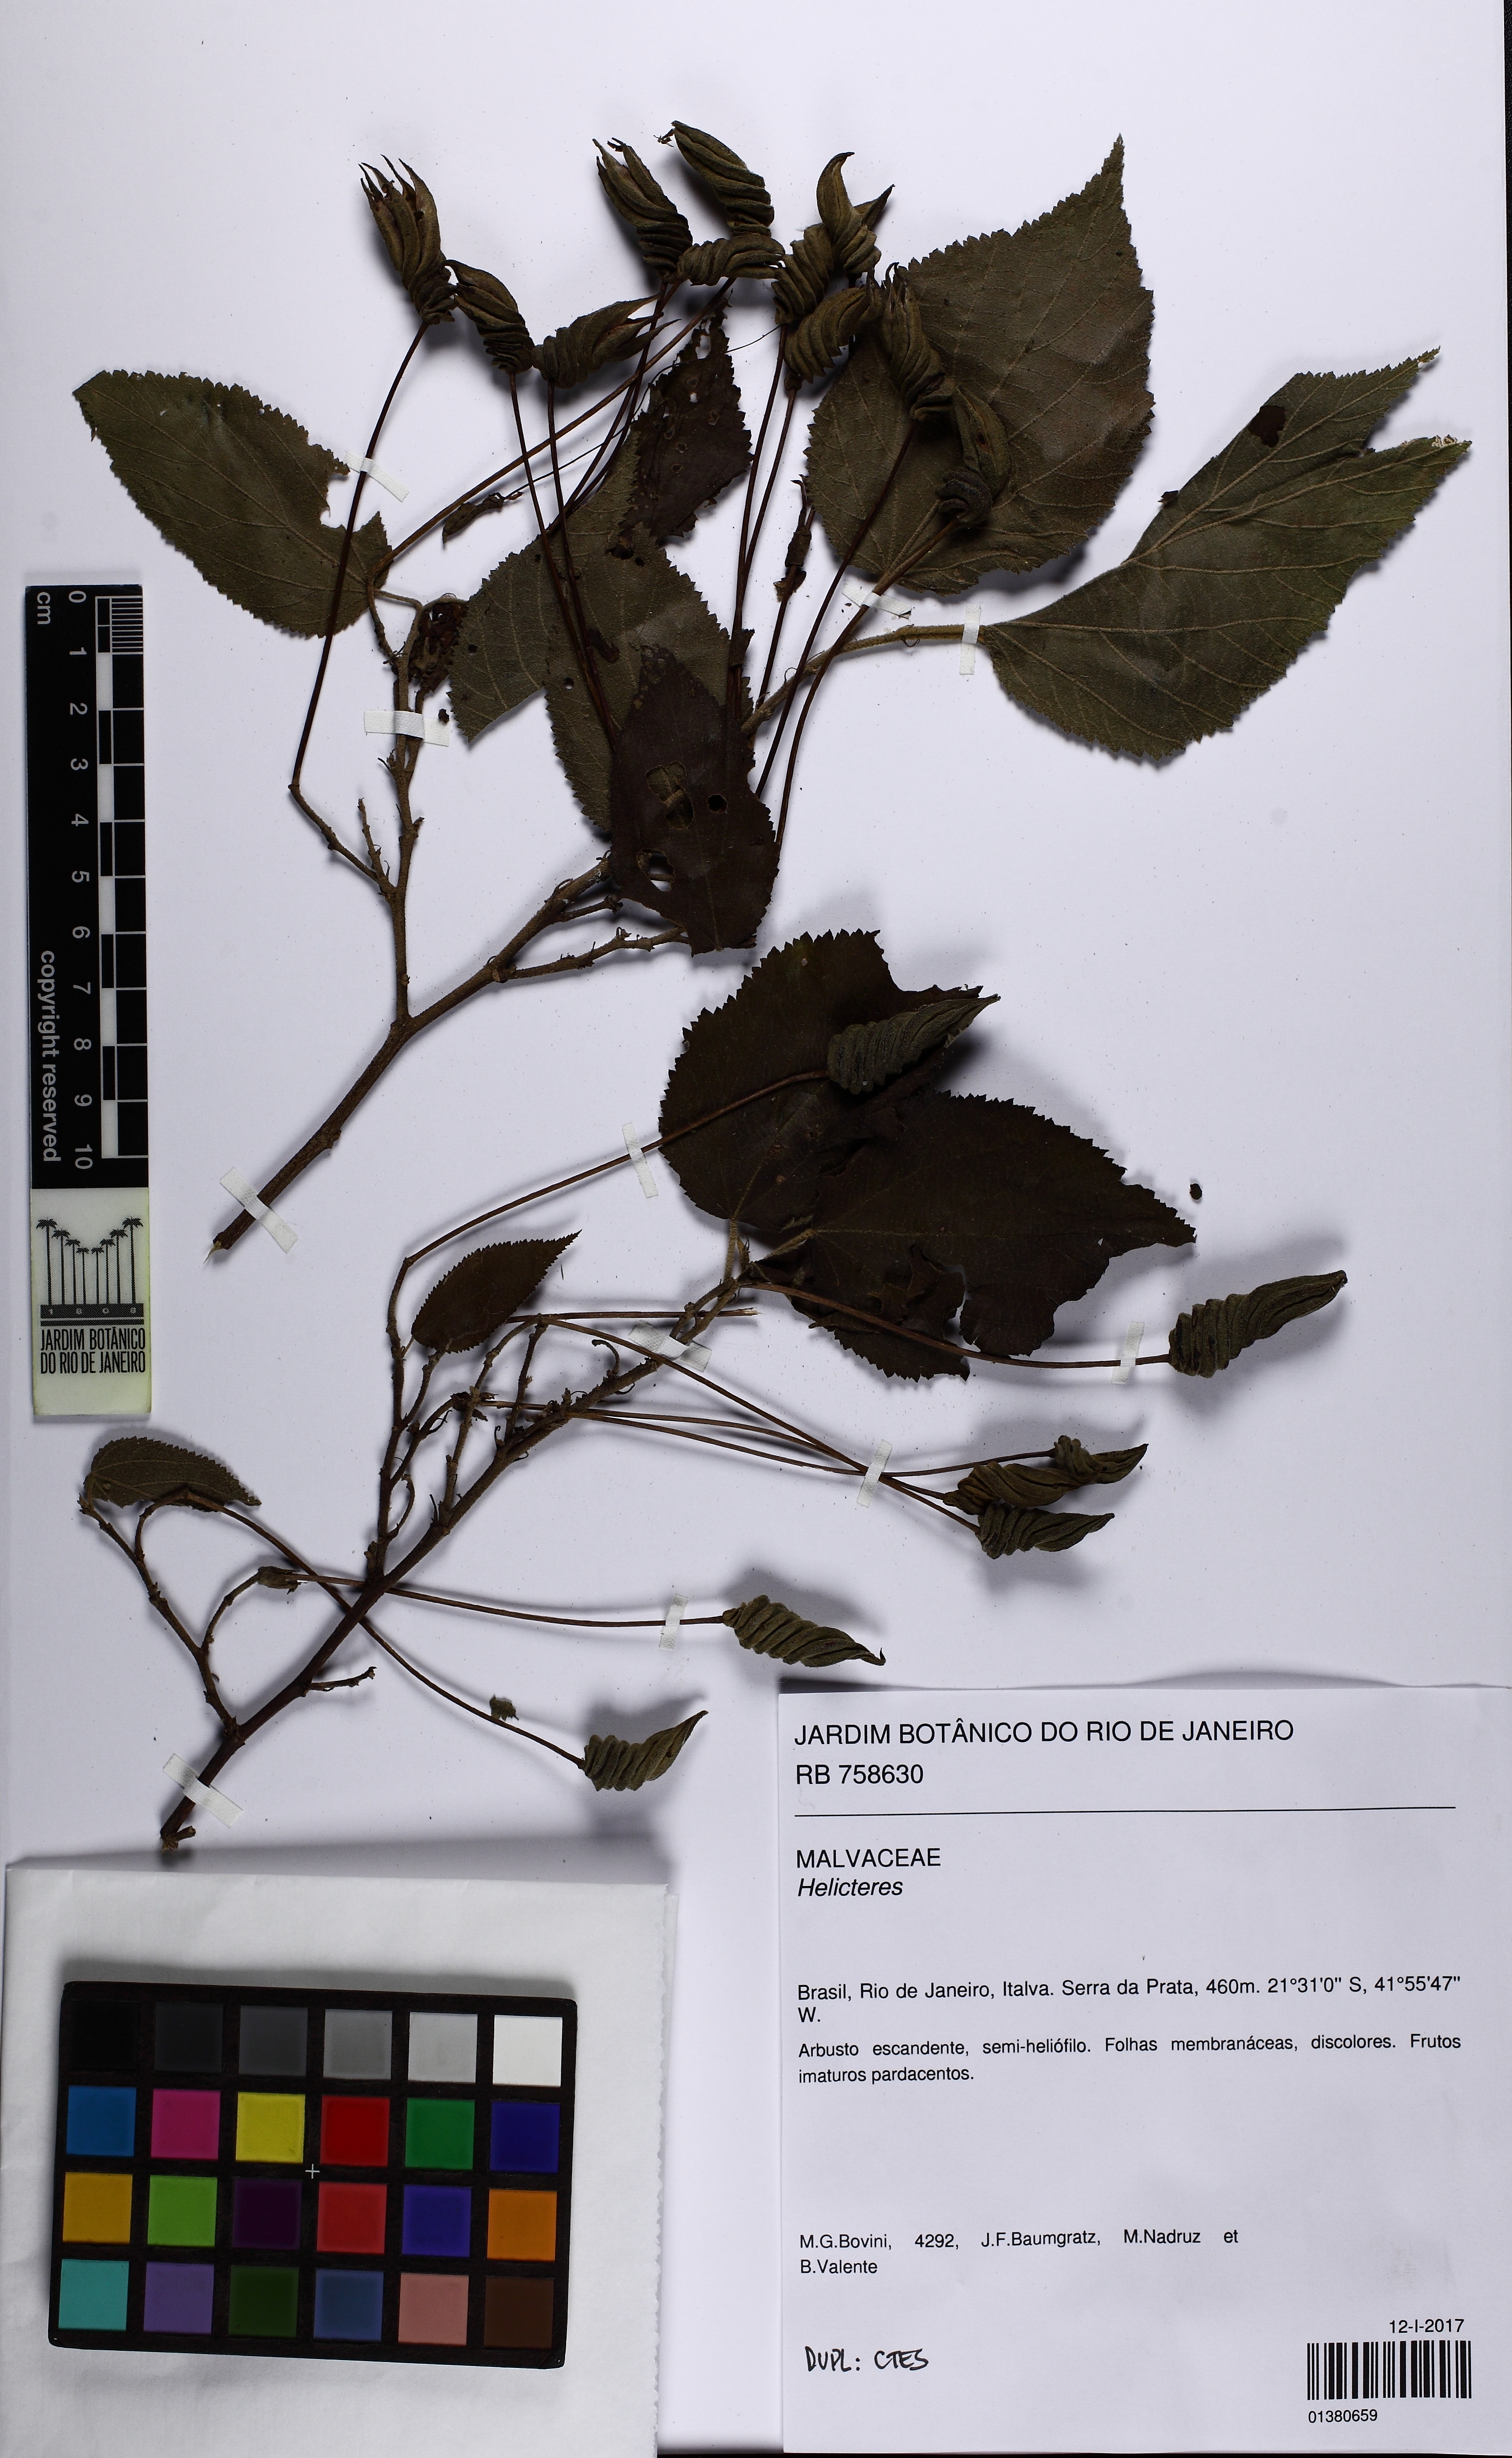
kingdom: Plantae
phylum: Tracheophyta
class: Magnoliopsida
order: Malvales
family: Malvaceae
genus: Helicteres
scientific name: Helicteres
